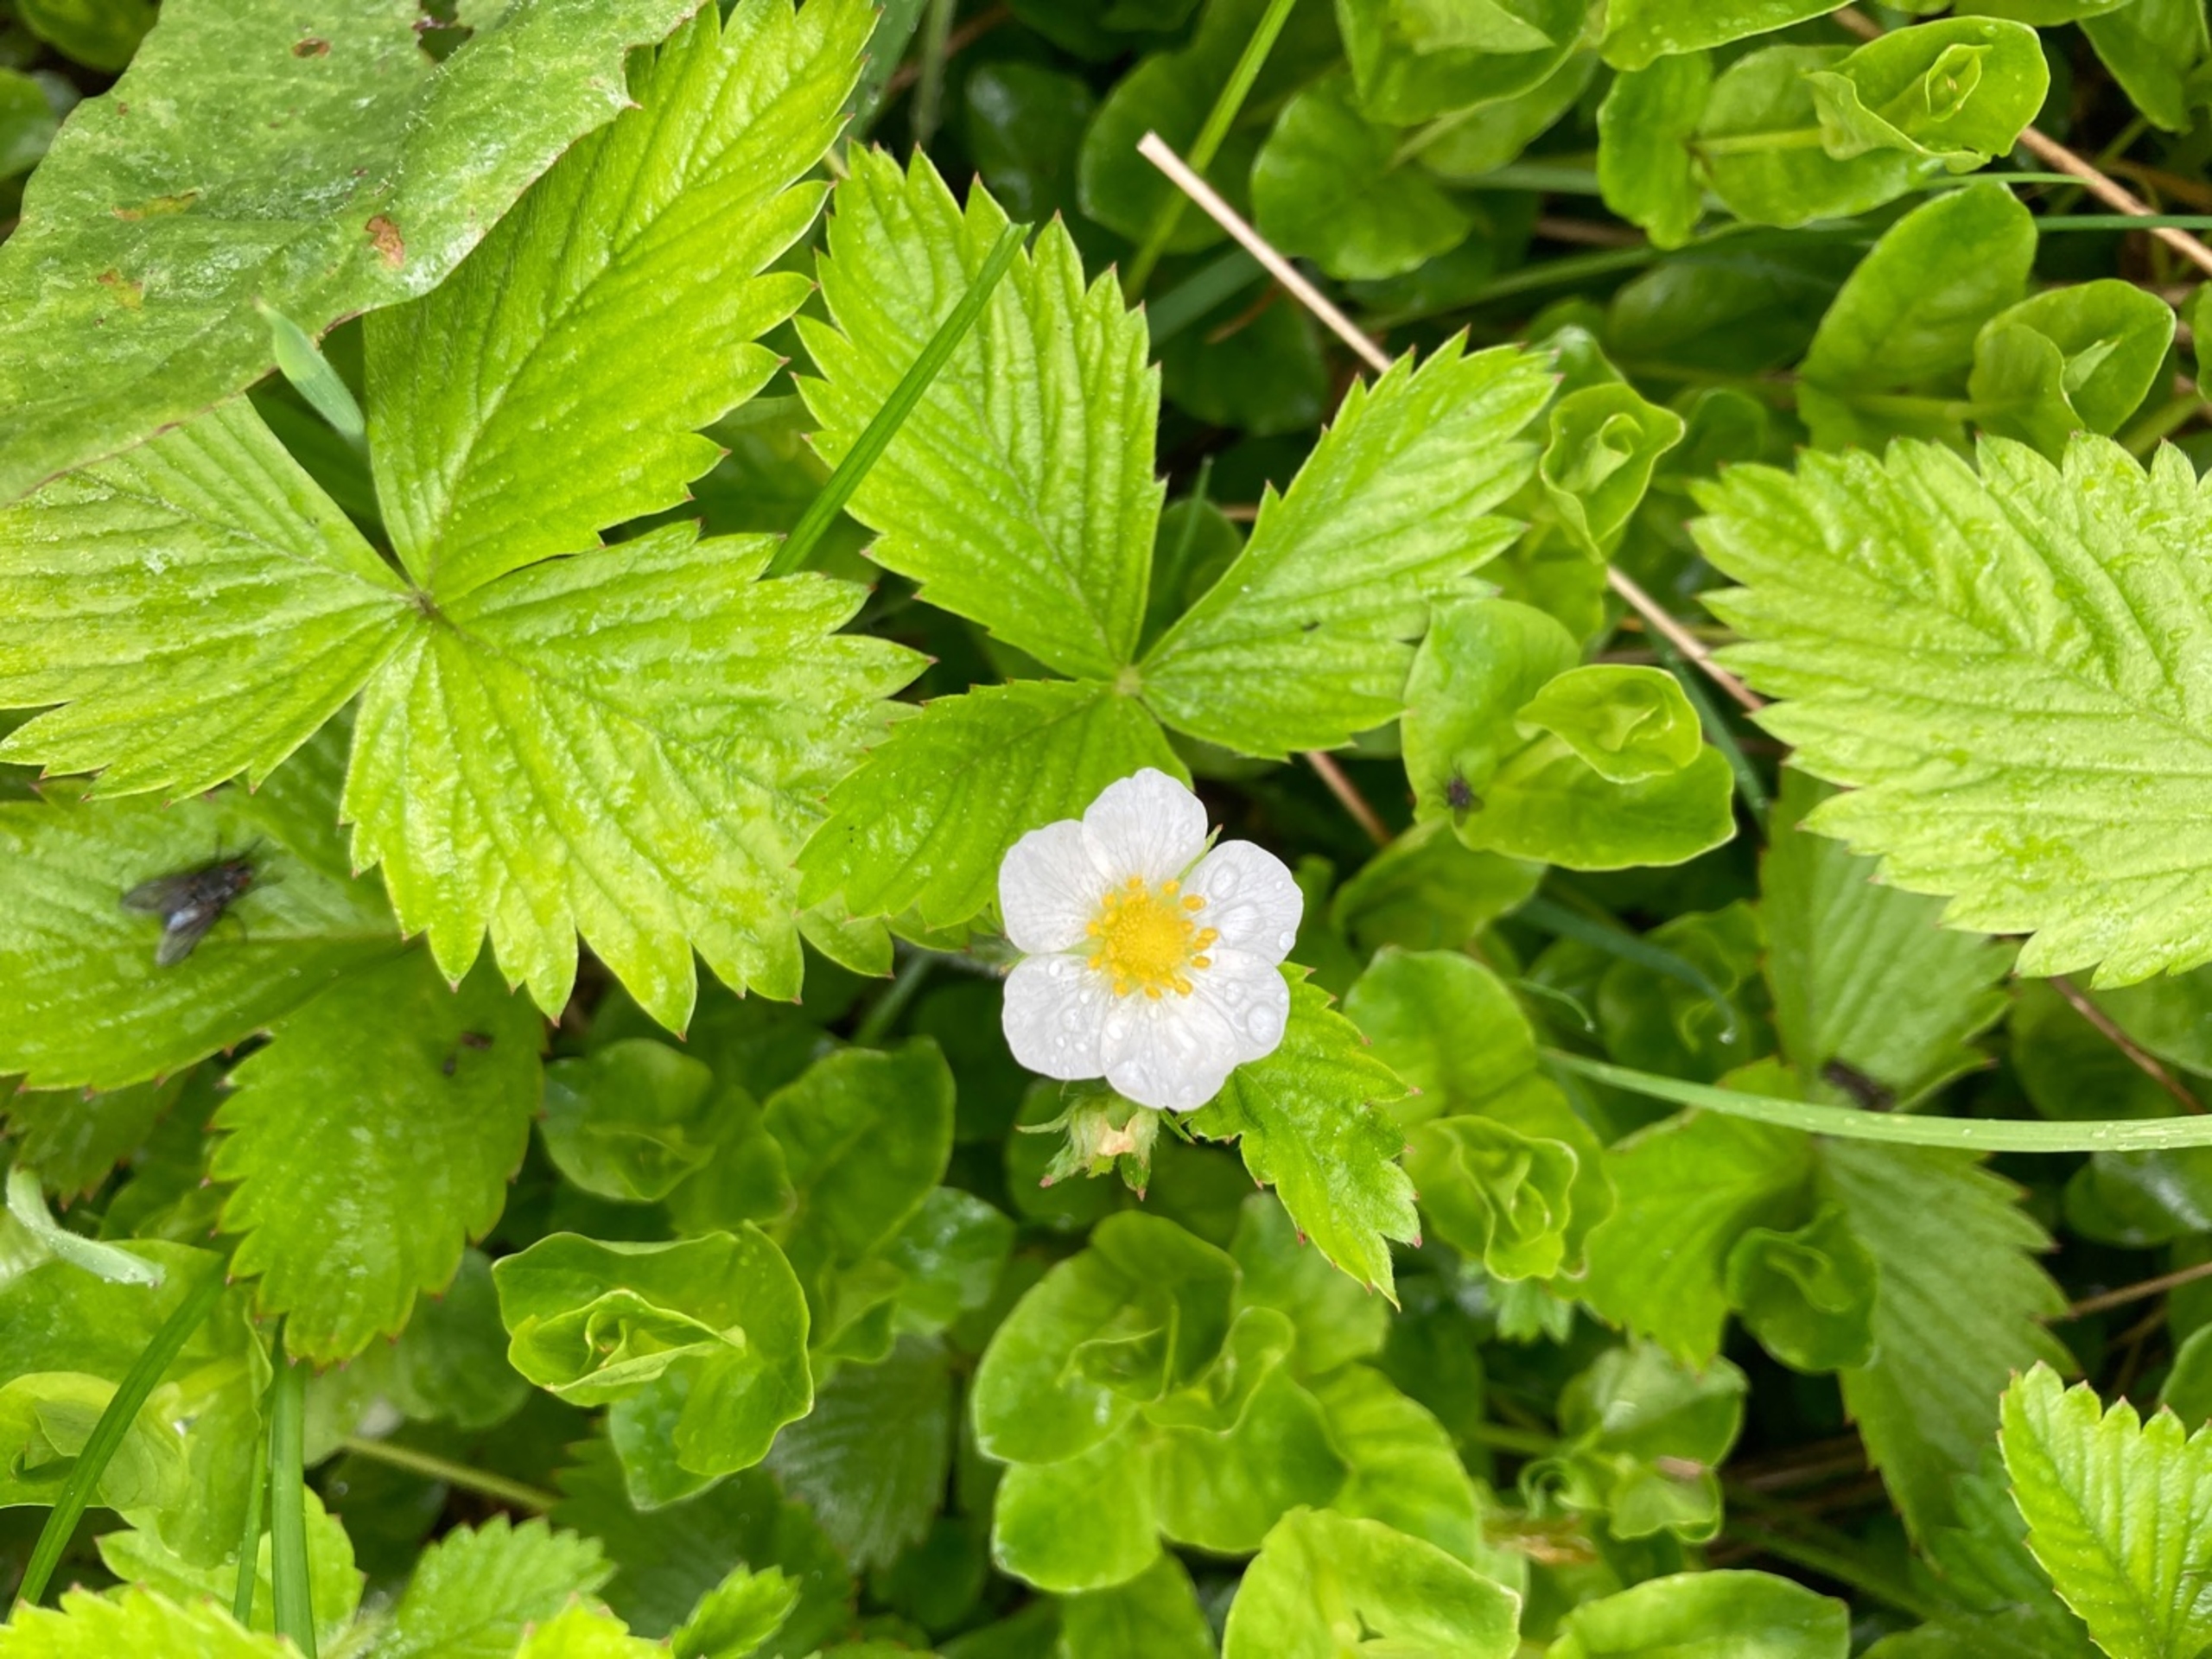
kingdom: Plantae
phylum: Tracheophyta
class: Magnoliopsida
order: Rosales
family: Rosaceae
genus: Fragaria
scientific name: Fragaria vesca
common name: Skov-jordbær
